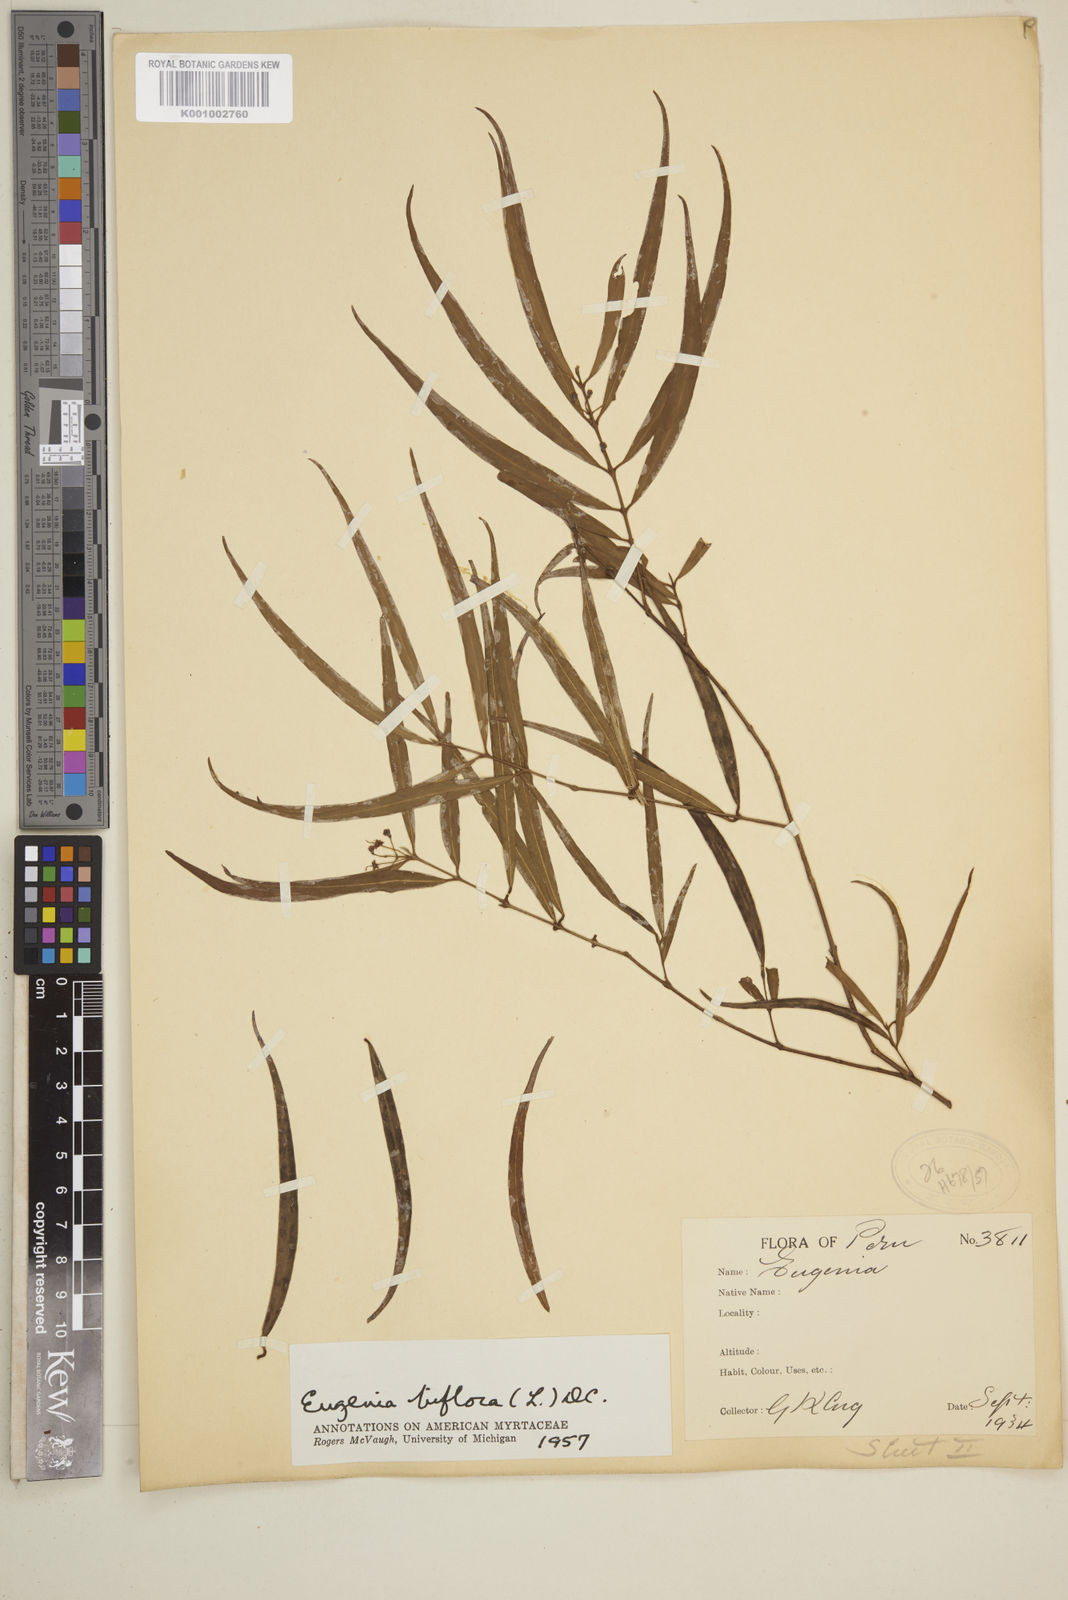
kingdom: Plantae
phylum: Tracheophyta
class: Magnoliopsida
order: Myrtales
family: Myrtaceae
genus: Eugenia
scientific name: Eugenia biflora
